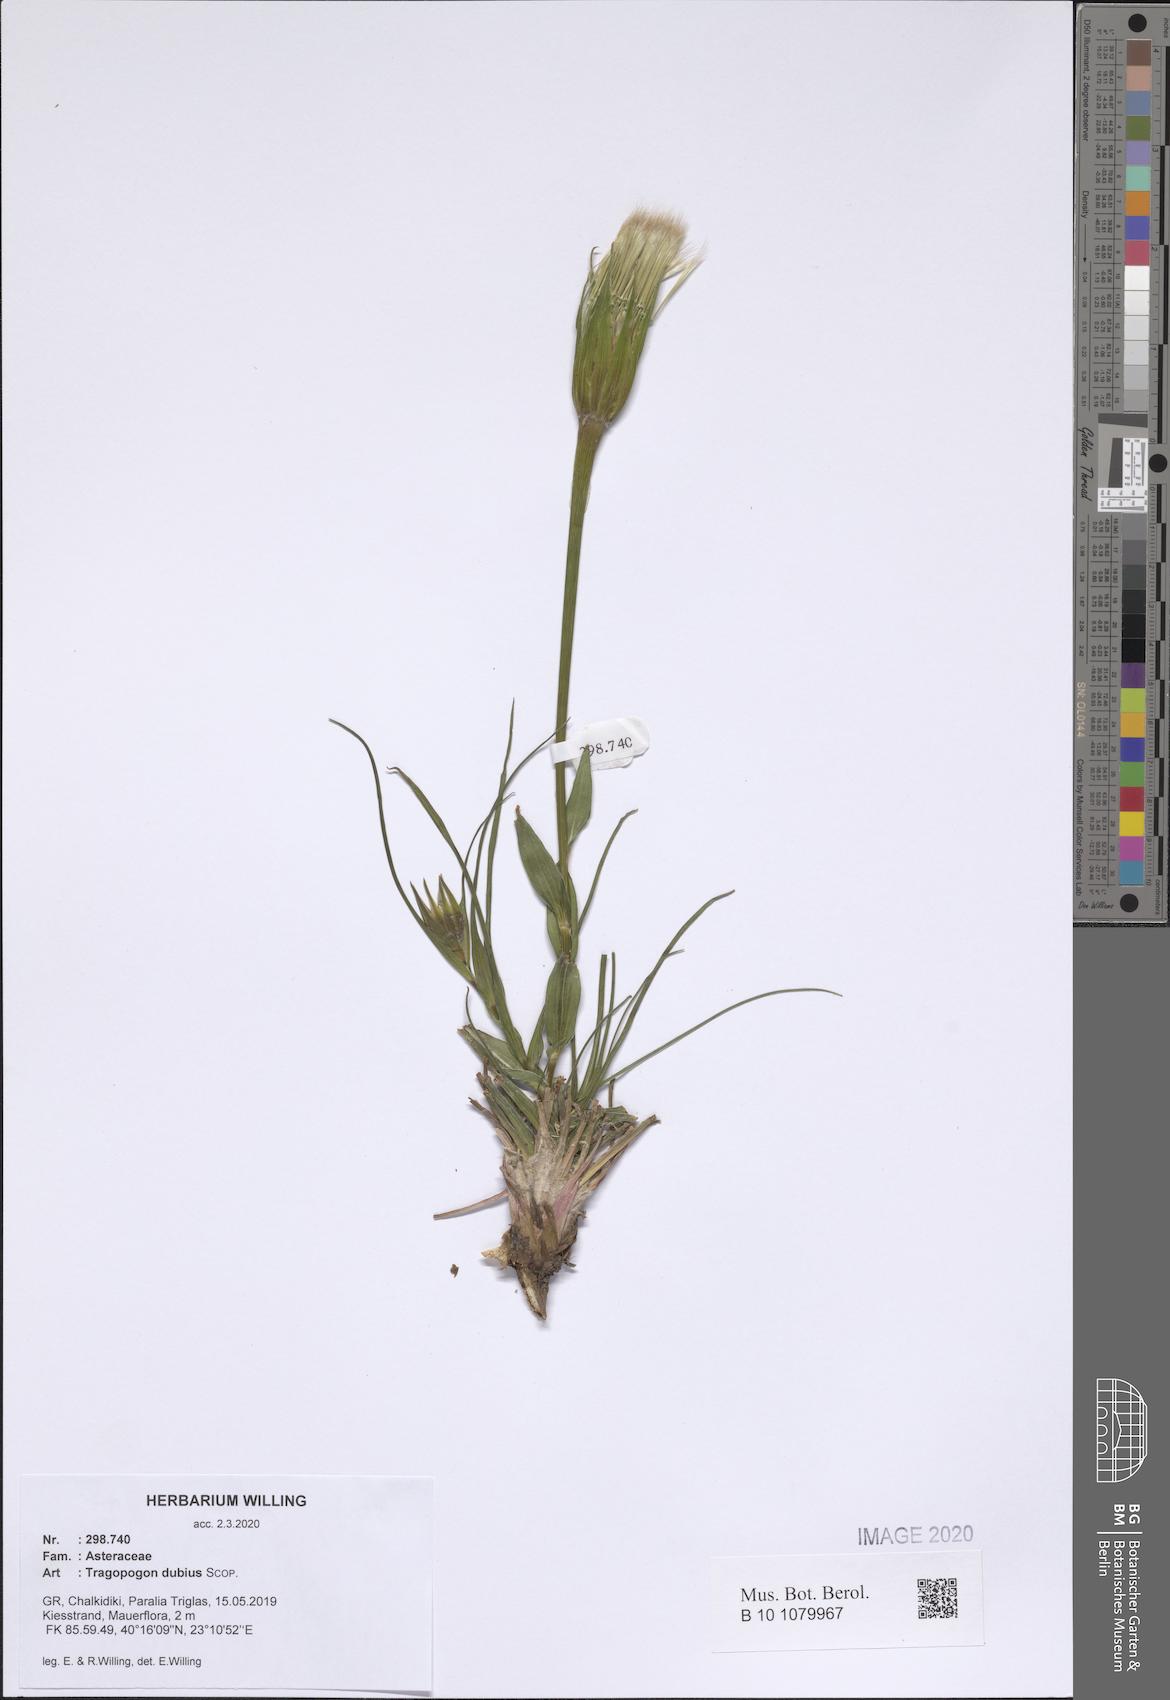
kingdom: Plantae
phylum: Tracheophyta
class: Magnoliopsida
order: Asterales
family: Asteraceae
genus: Tragopogon
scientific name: Tragopogon dubius
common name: Yellow salsify
